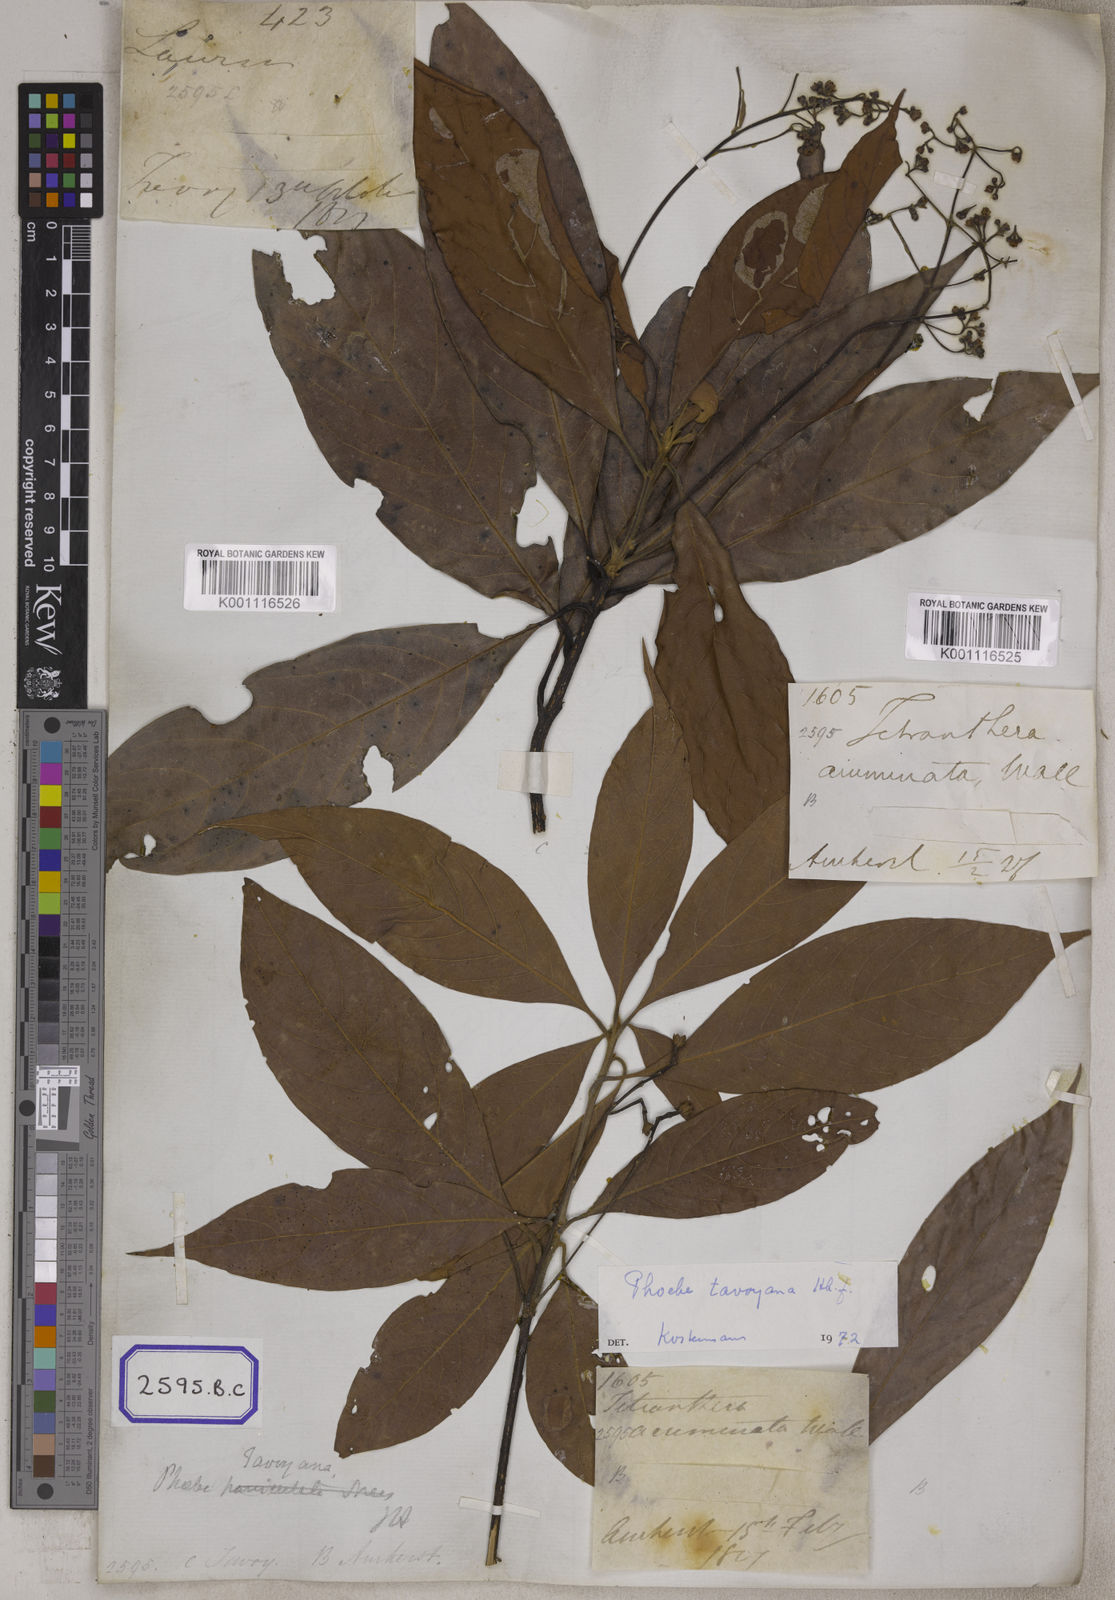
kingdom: Plantae
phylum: Tracheophyta
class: Magnoliopsida
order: Laurales
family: Lauraceae
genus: Phoebe
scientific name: Phoebe pallida
